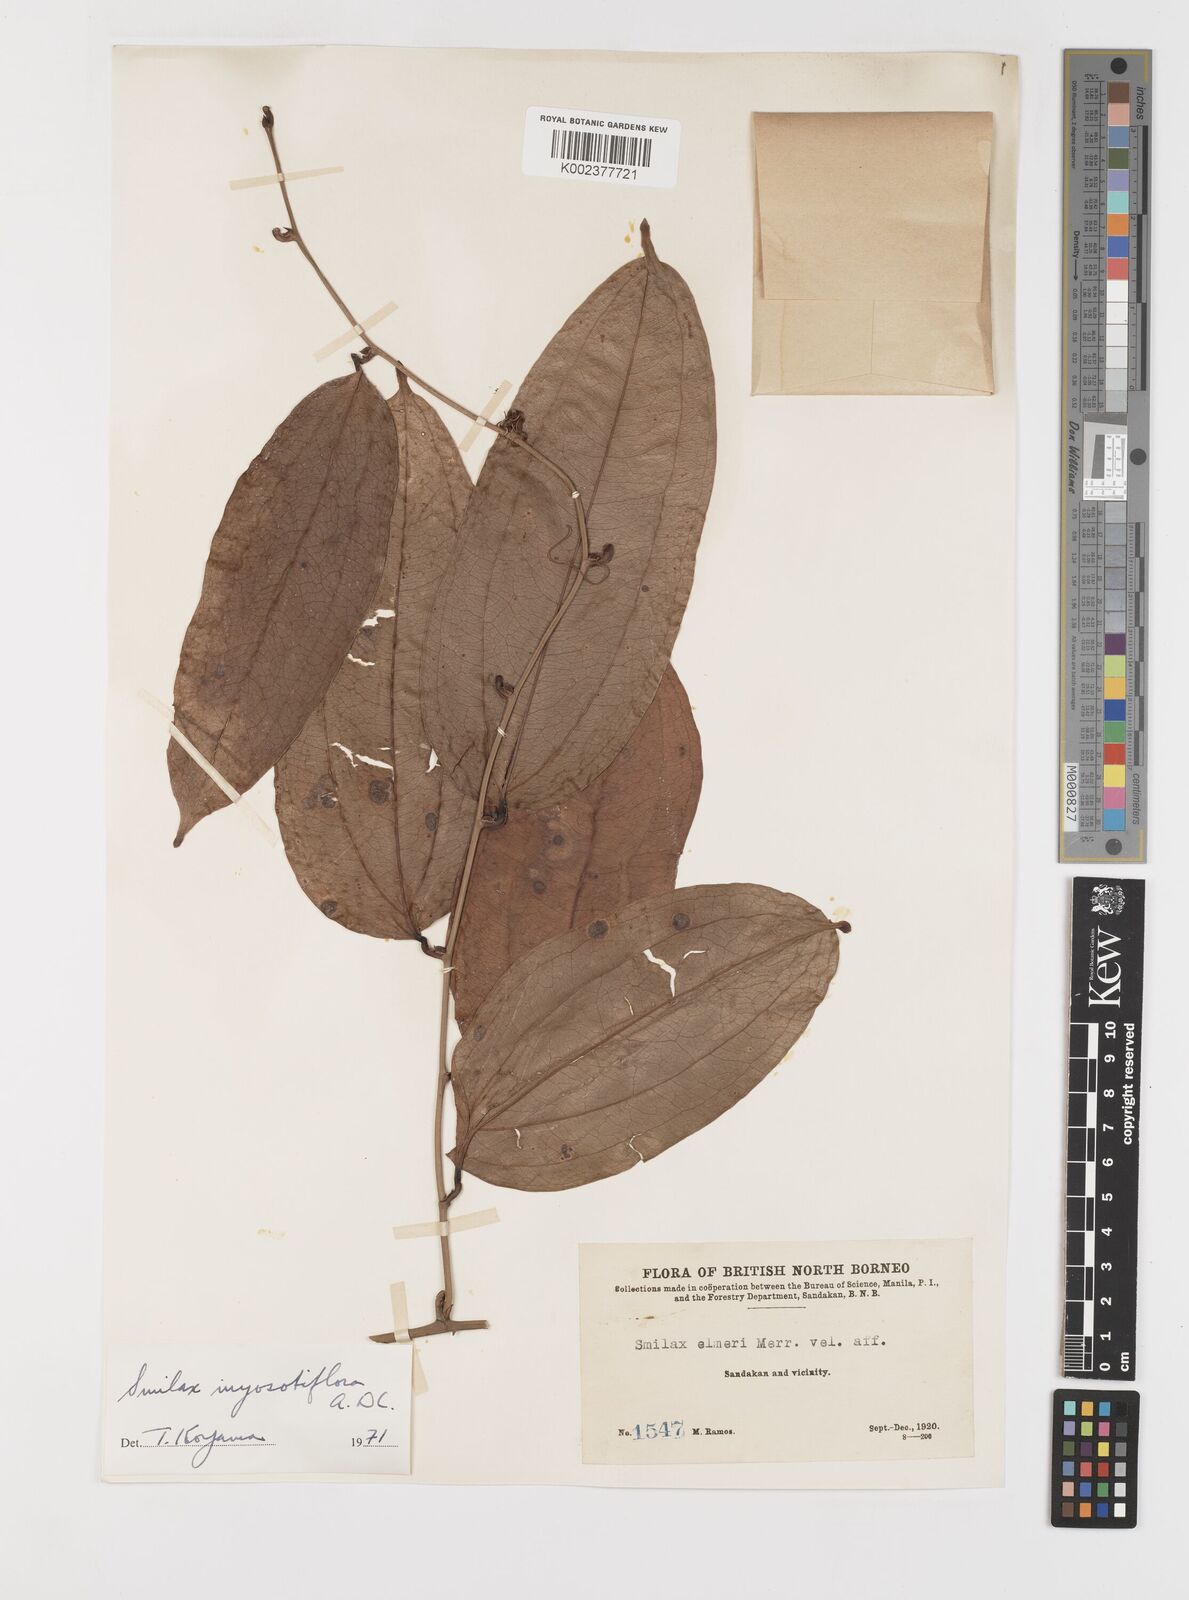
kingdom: Plantae
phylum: Tracheophyta
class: Liliopsida
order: Liliales
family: Smilacaceae
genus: Smilax
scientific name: Smilax myosotiflora
